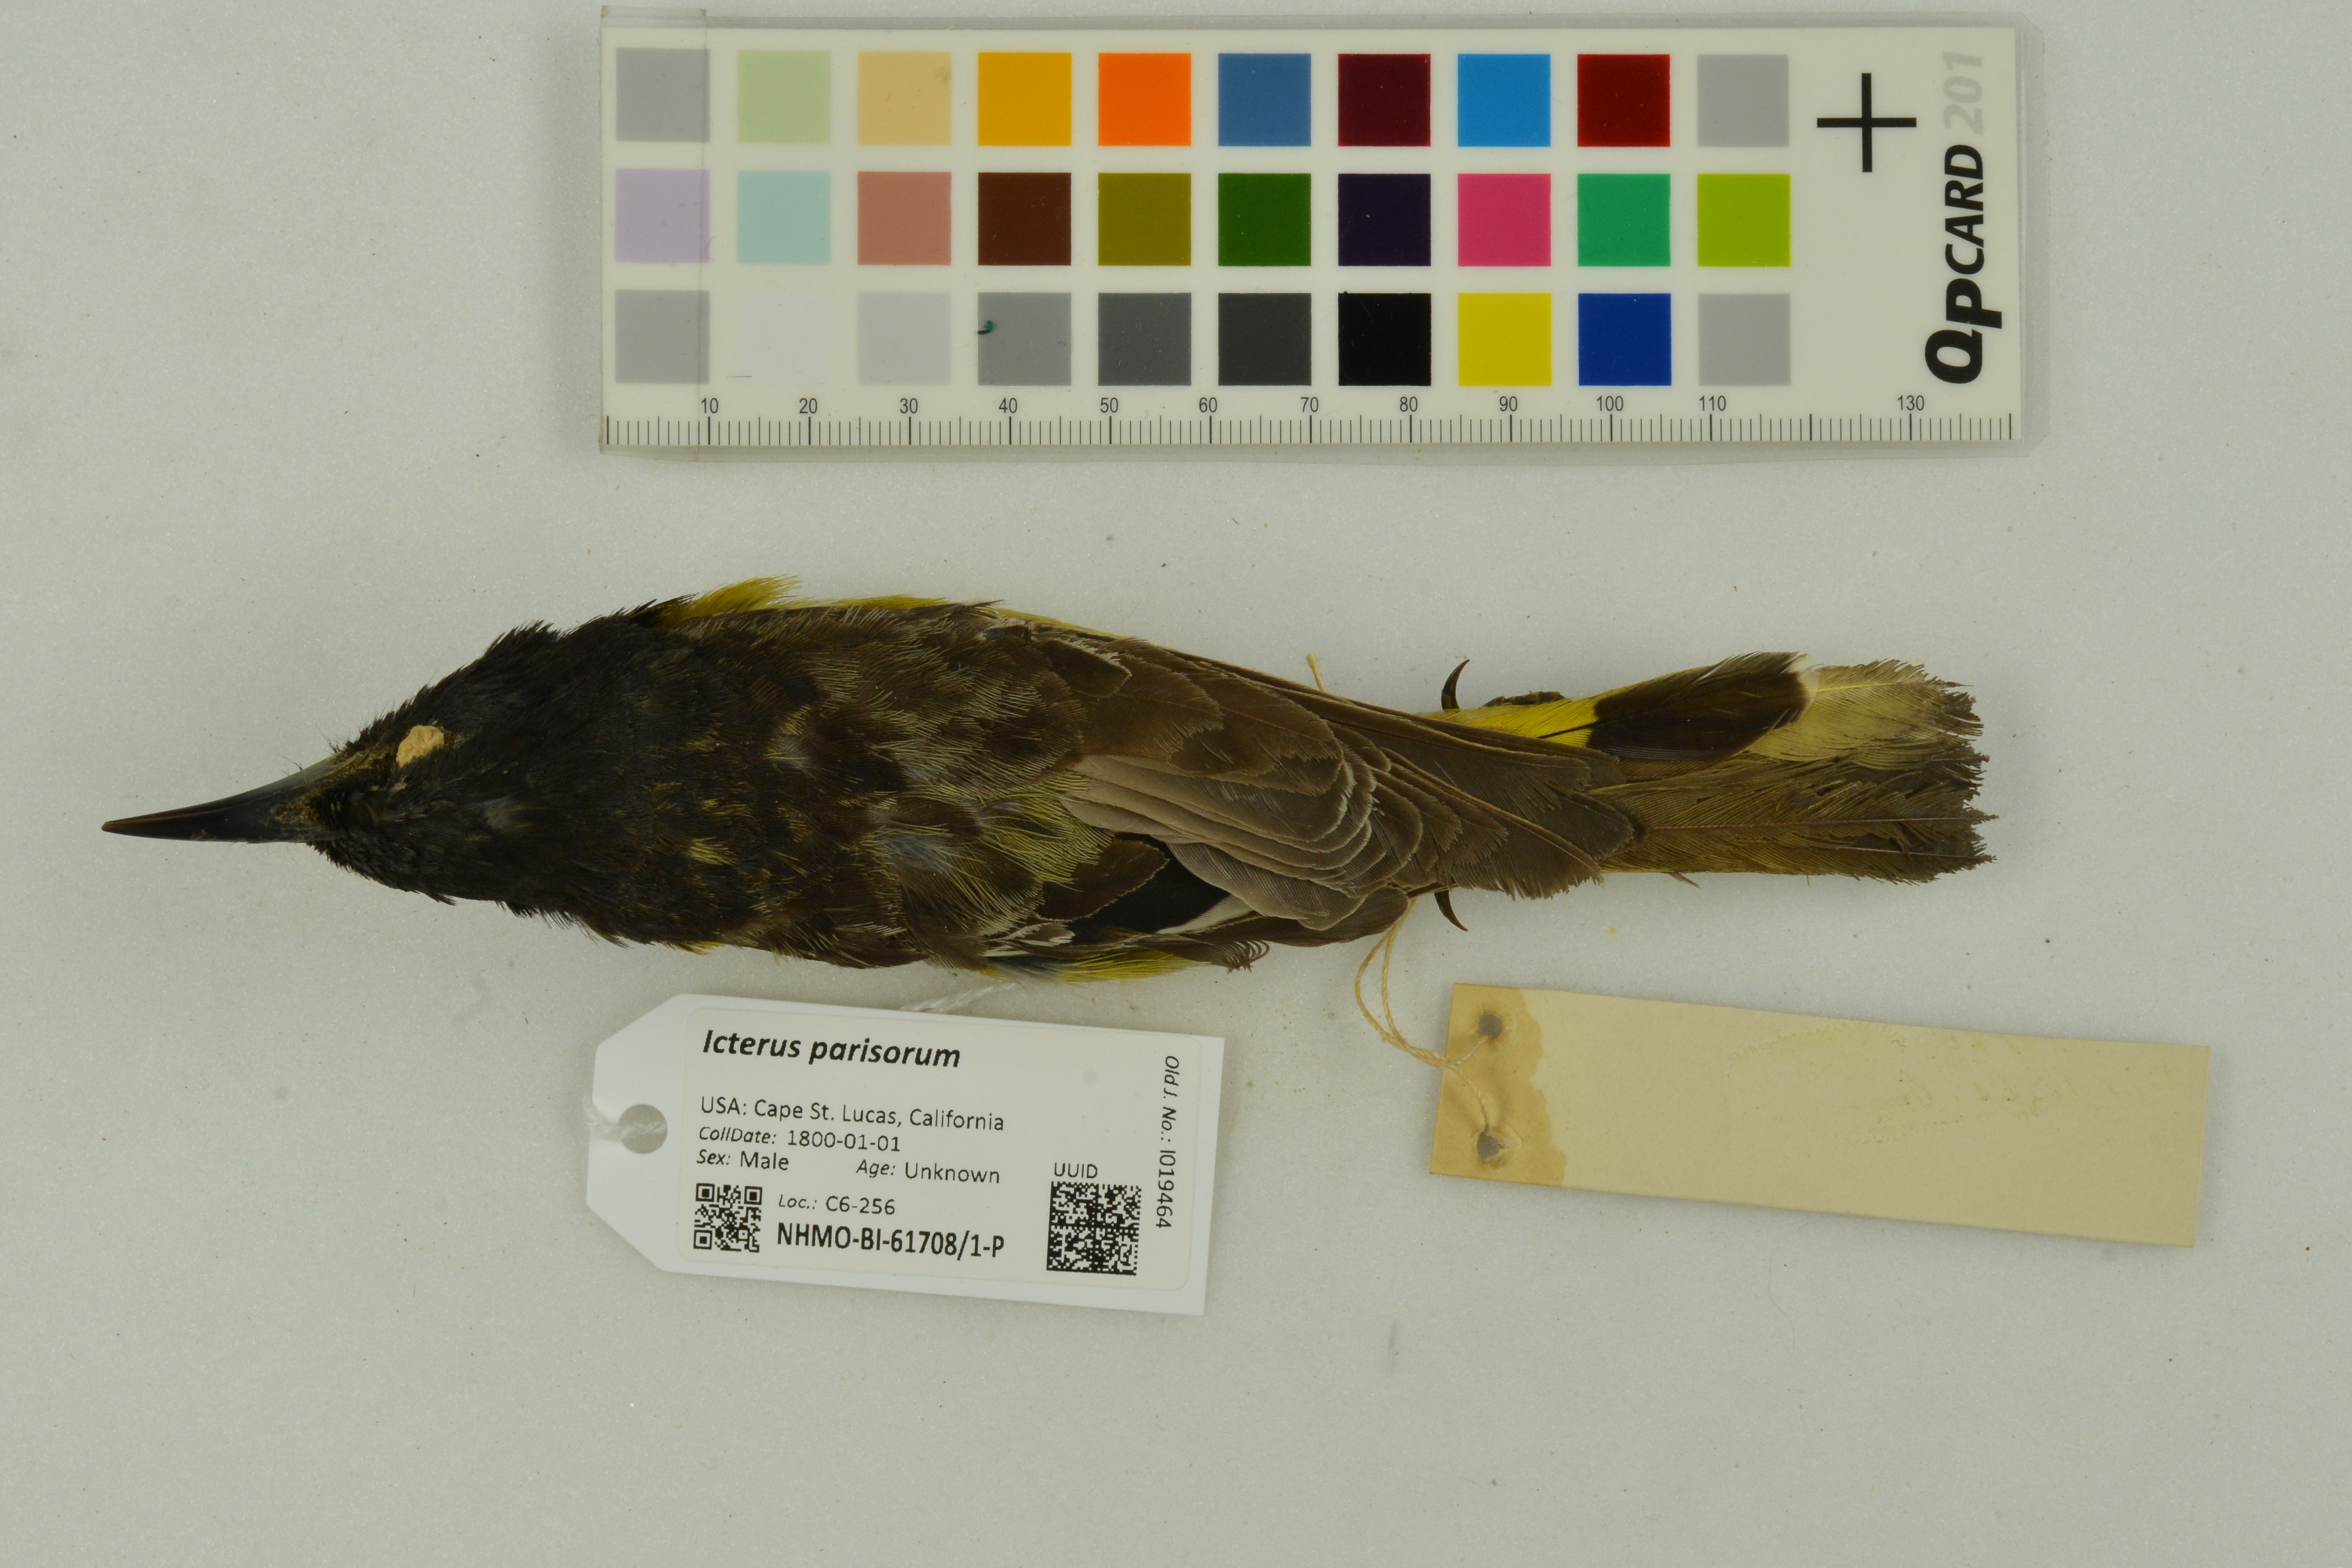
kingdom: Animalia
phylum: Chordata
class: Aves
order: Passeriformes
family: Icteridae
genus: Icterus
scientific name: Icterus parisorum
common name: Scott's oriole
